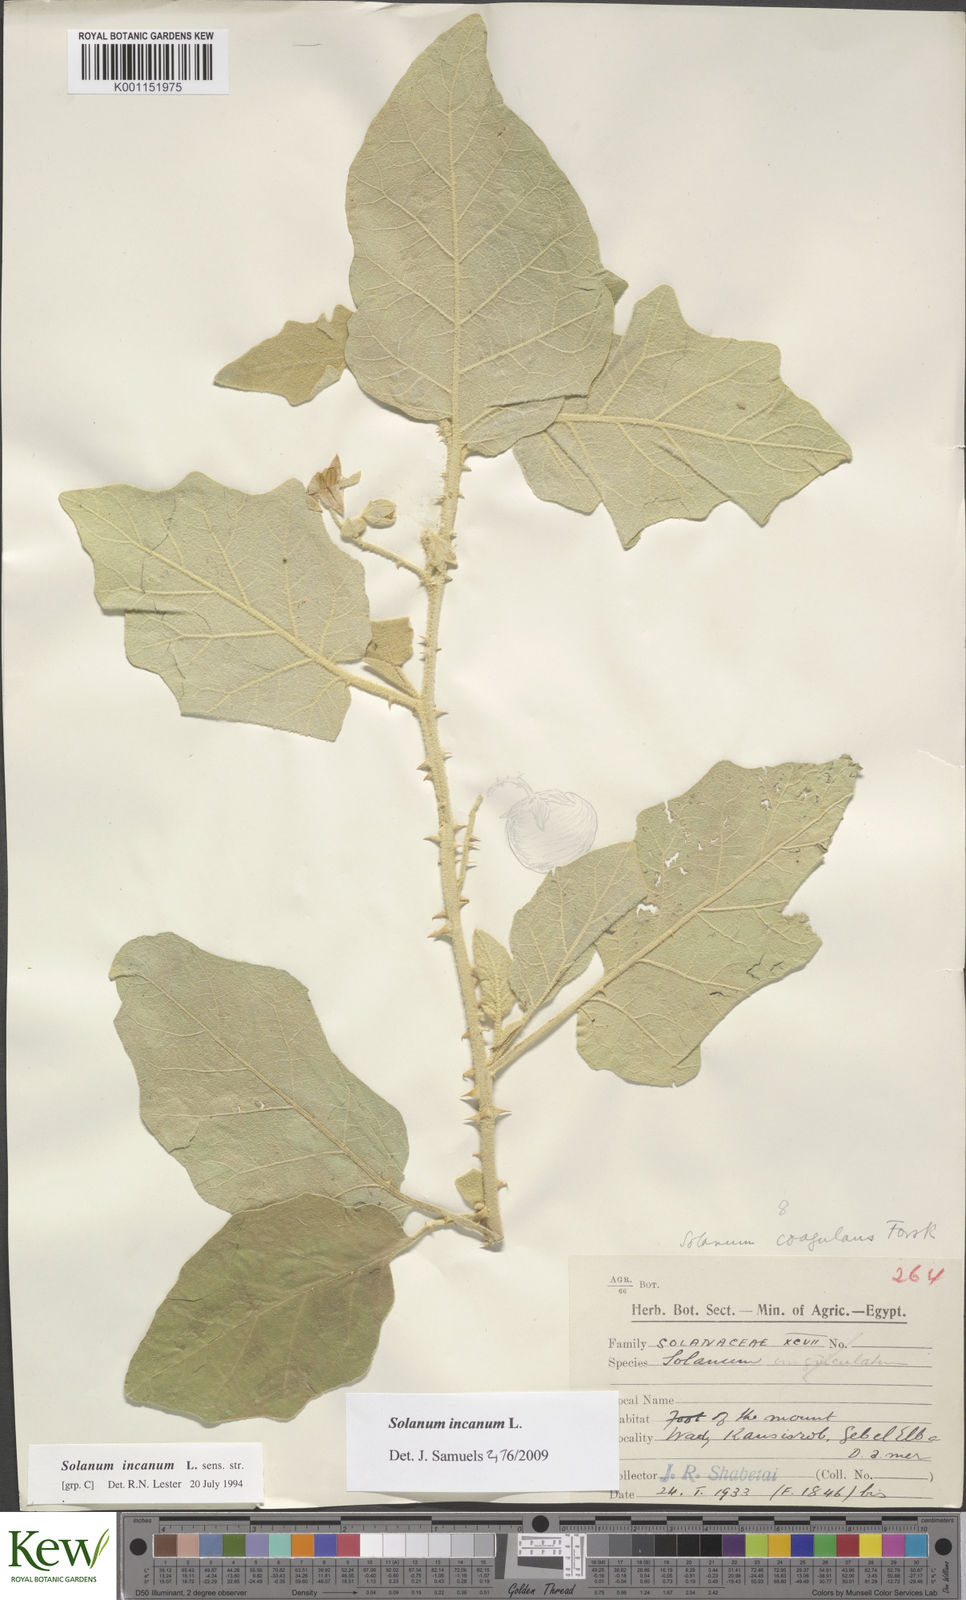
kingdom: Plantae
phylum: Tracheophyta
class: Magnoliopsida
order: Solanales
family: Solanaceae
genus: Solanum
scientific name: Solanum incanum
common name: Bitter apple
